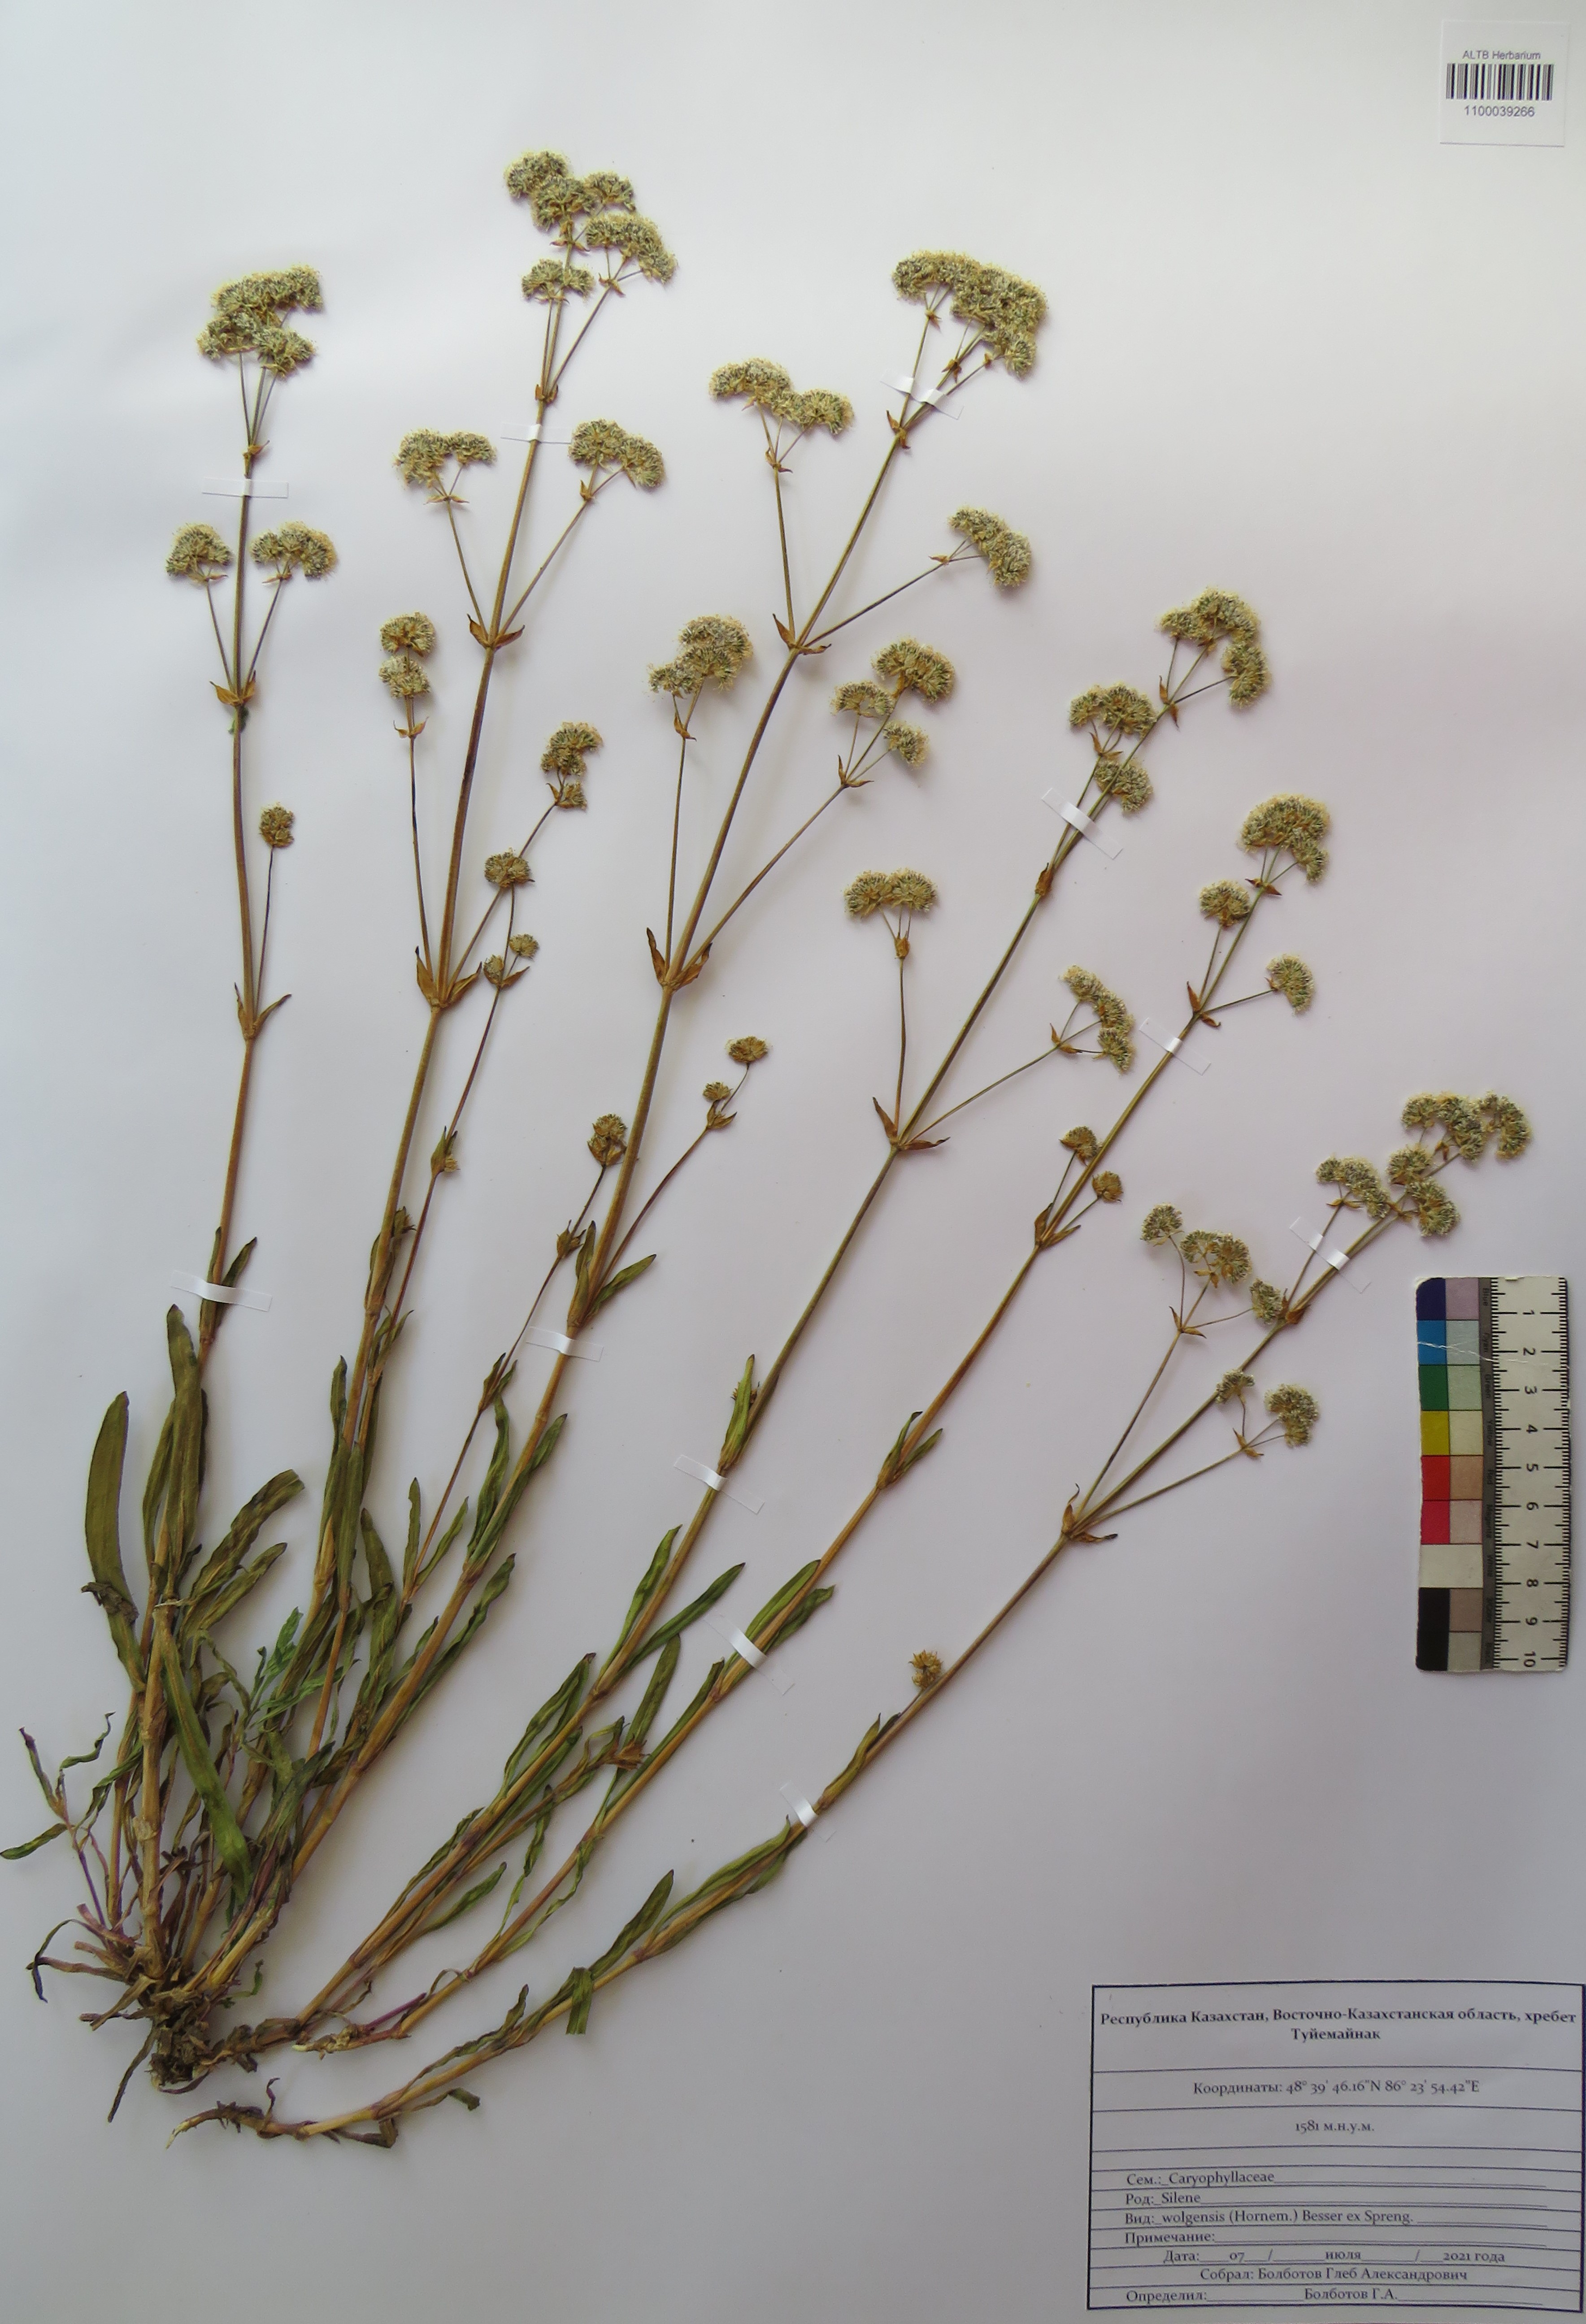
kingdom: Plantae
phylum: Tracheophyta
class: Magnoliopsida
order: Caryophyllales
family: Caryophyllaceae
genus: Silene
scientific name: Silene wolgensis
